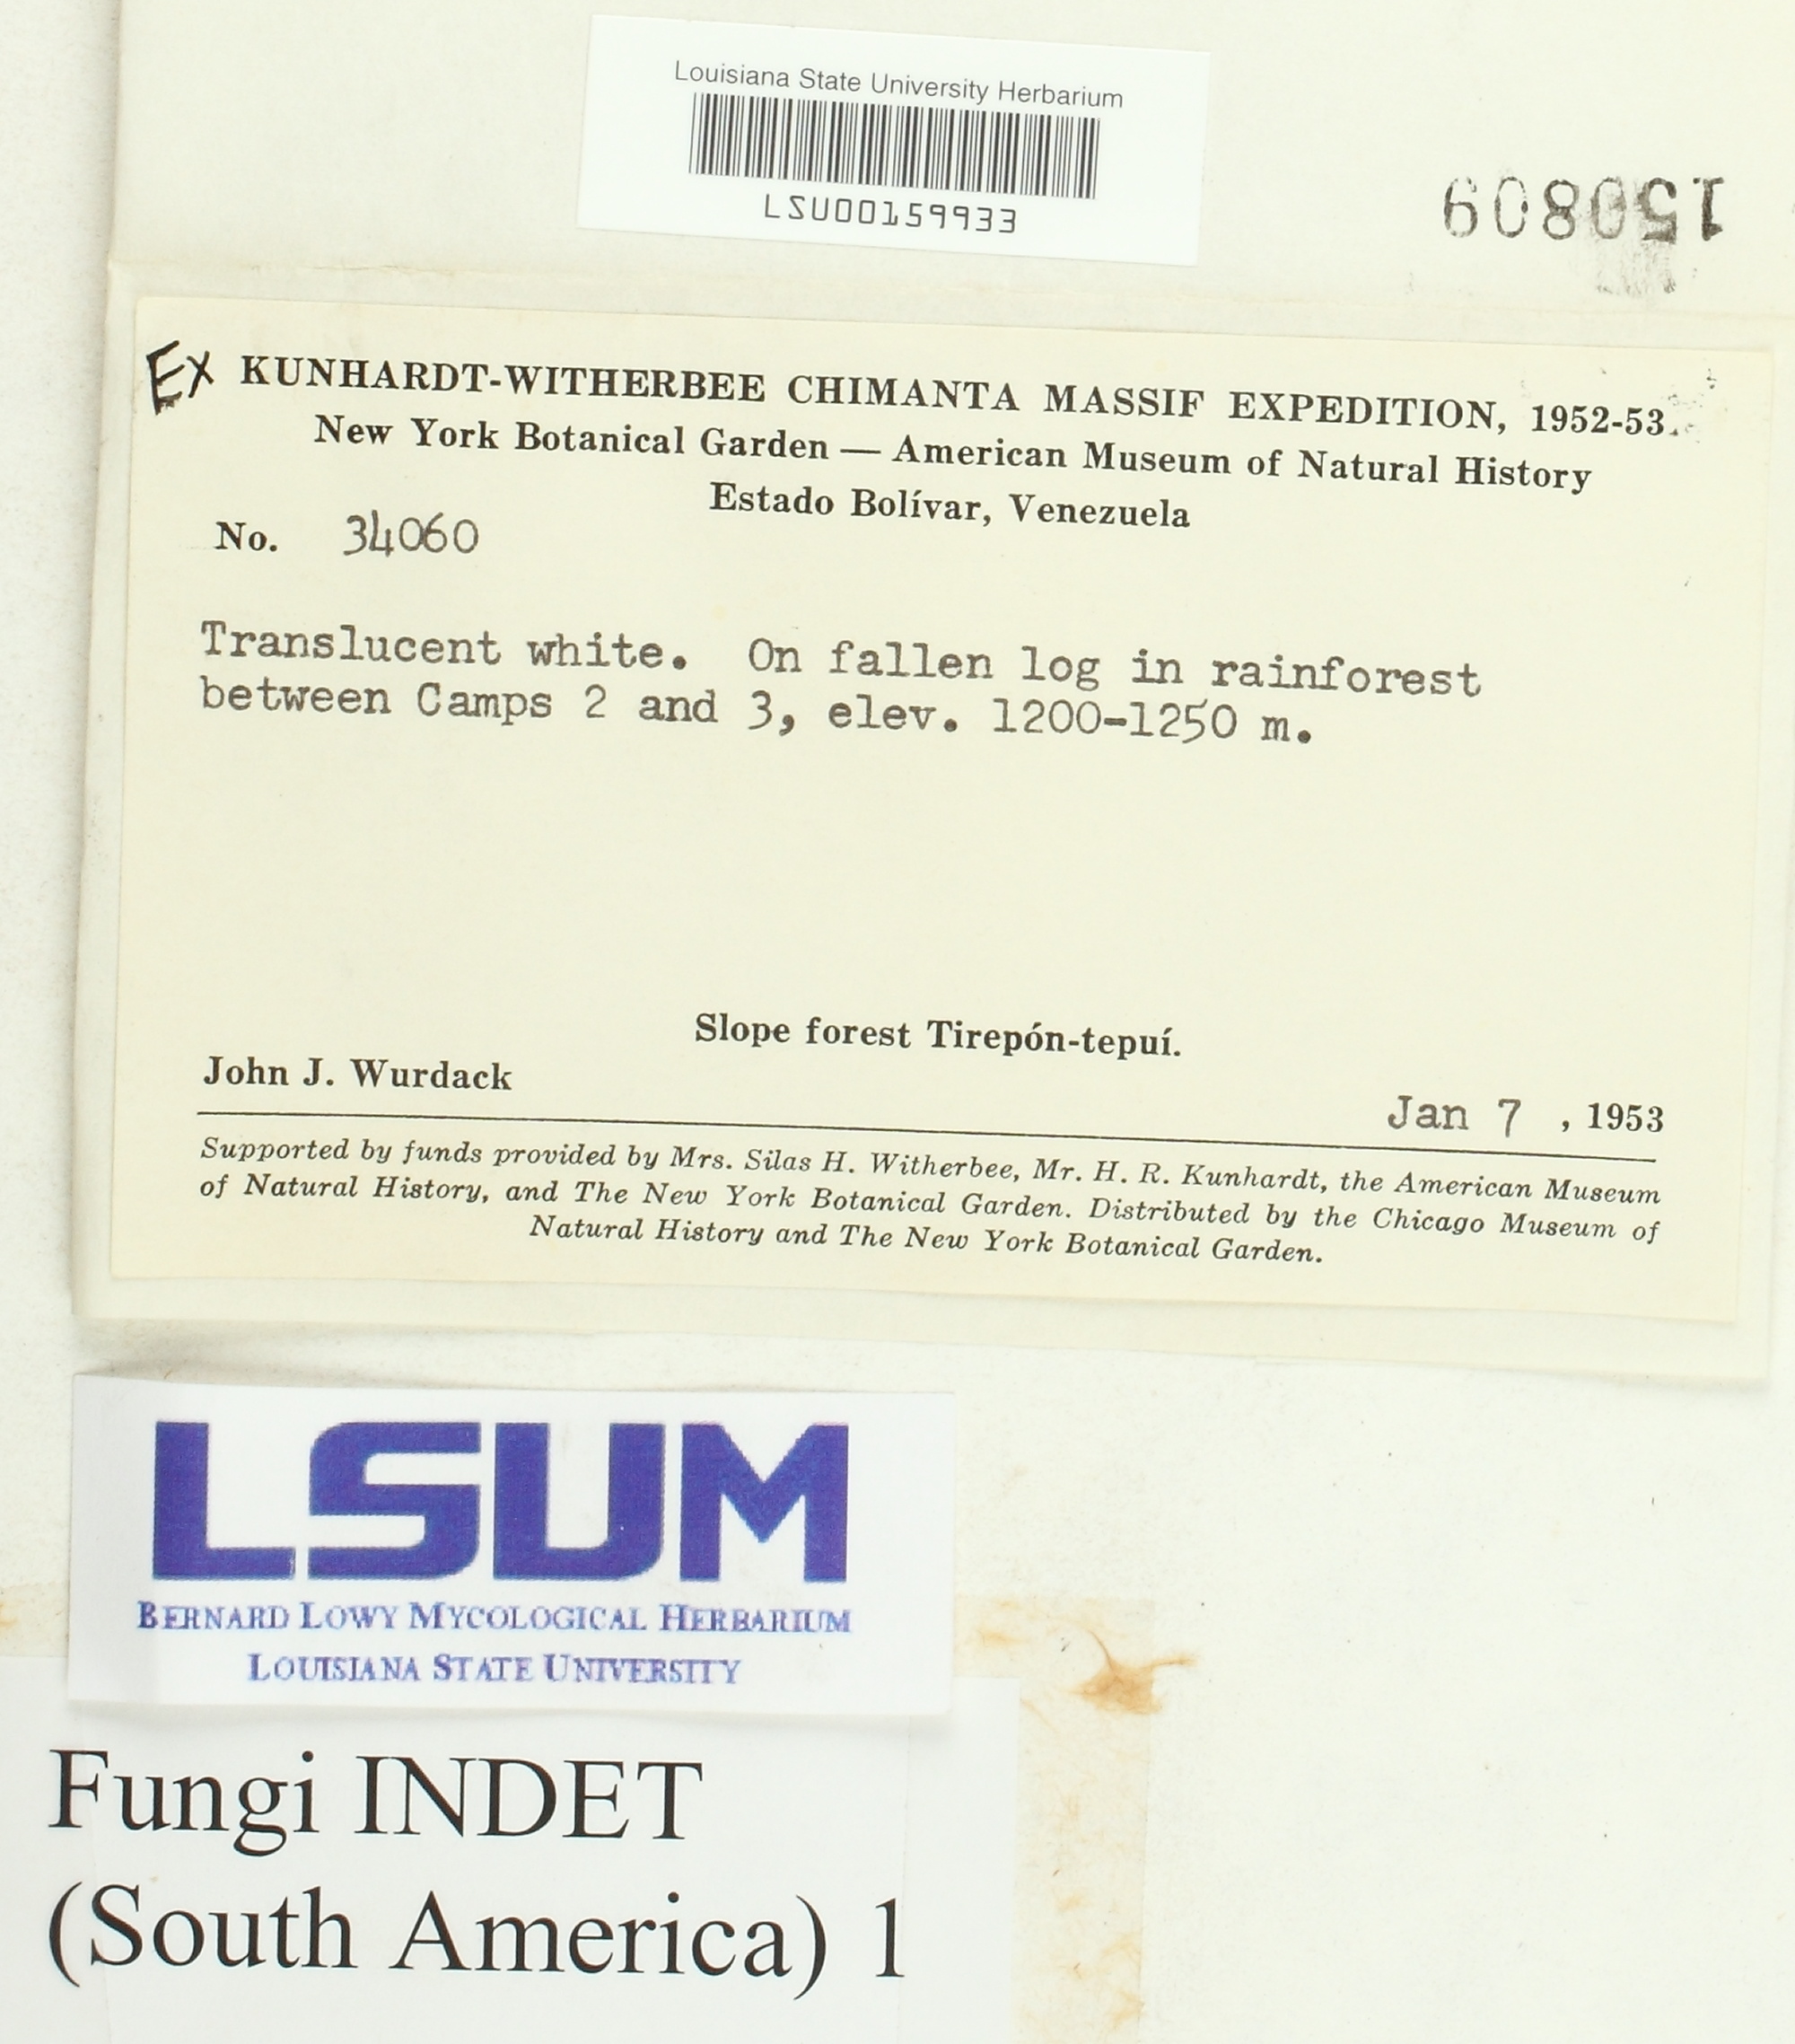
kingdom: Fungi
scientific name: Fungi
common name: Fungi
